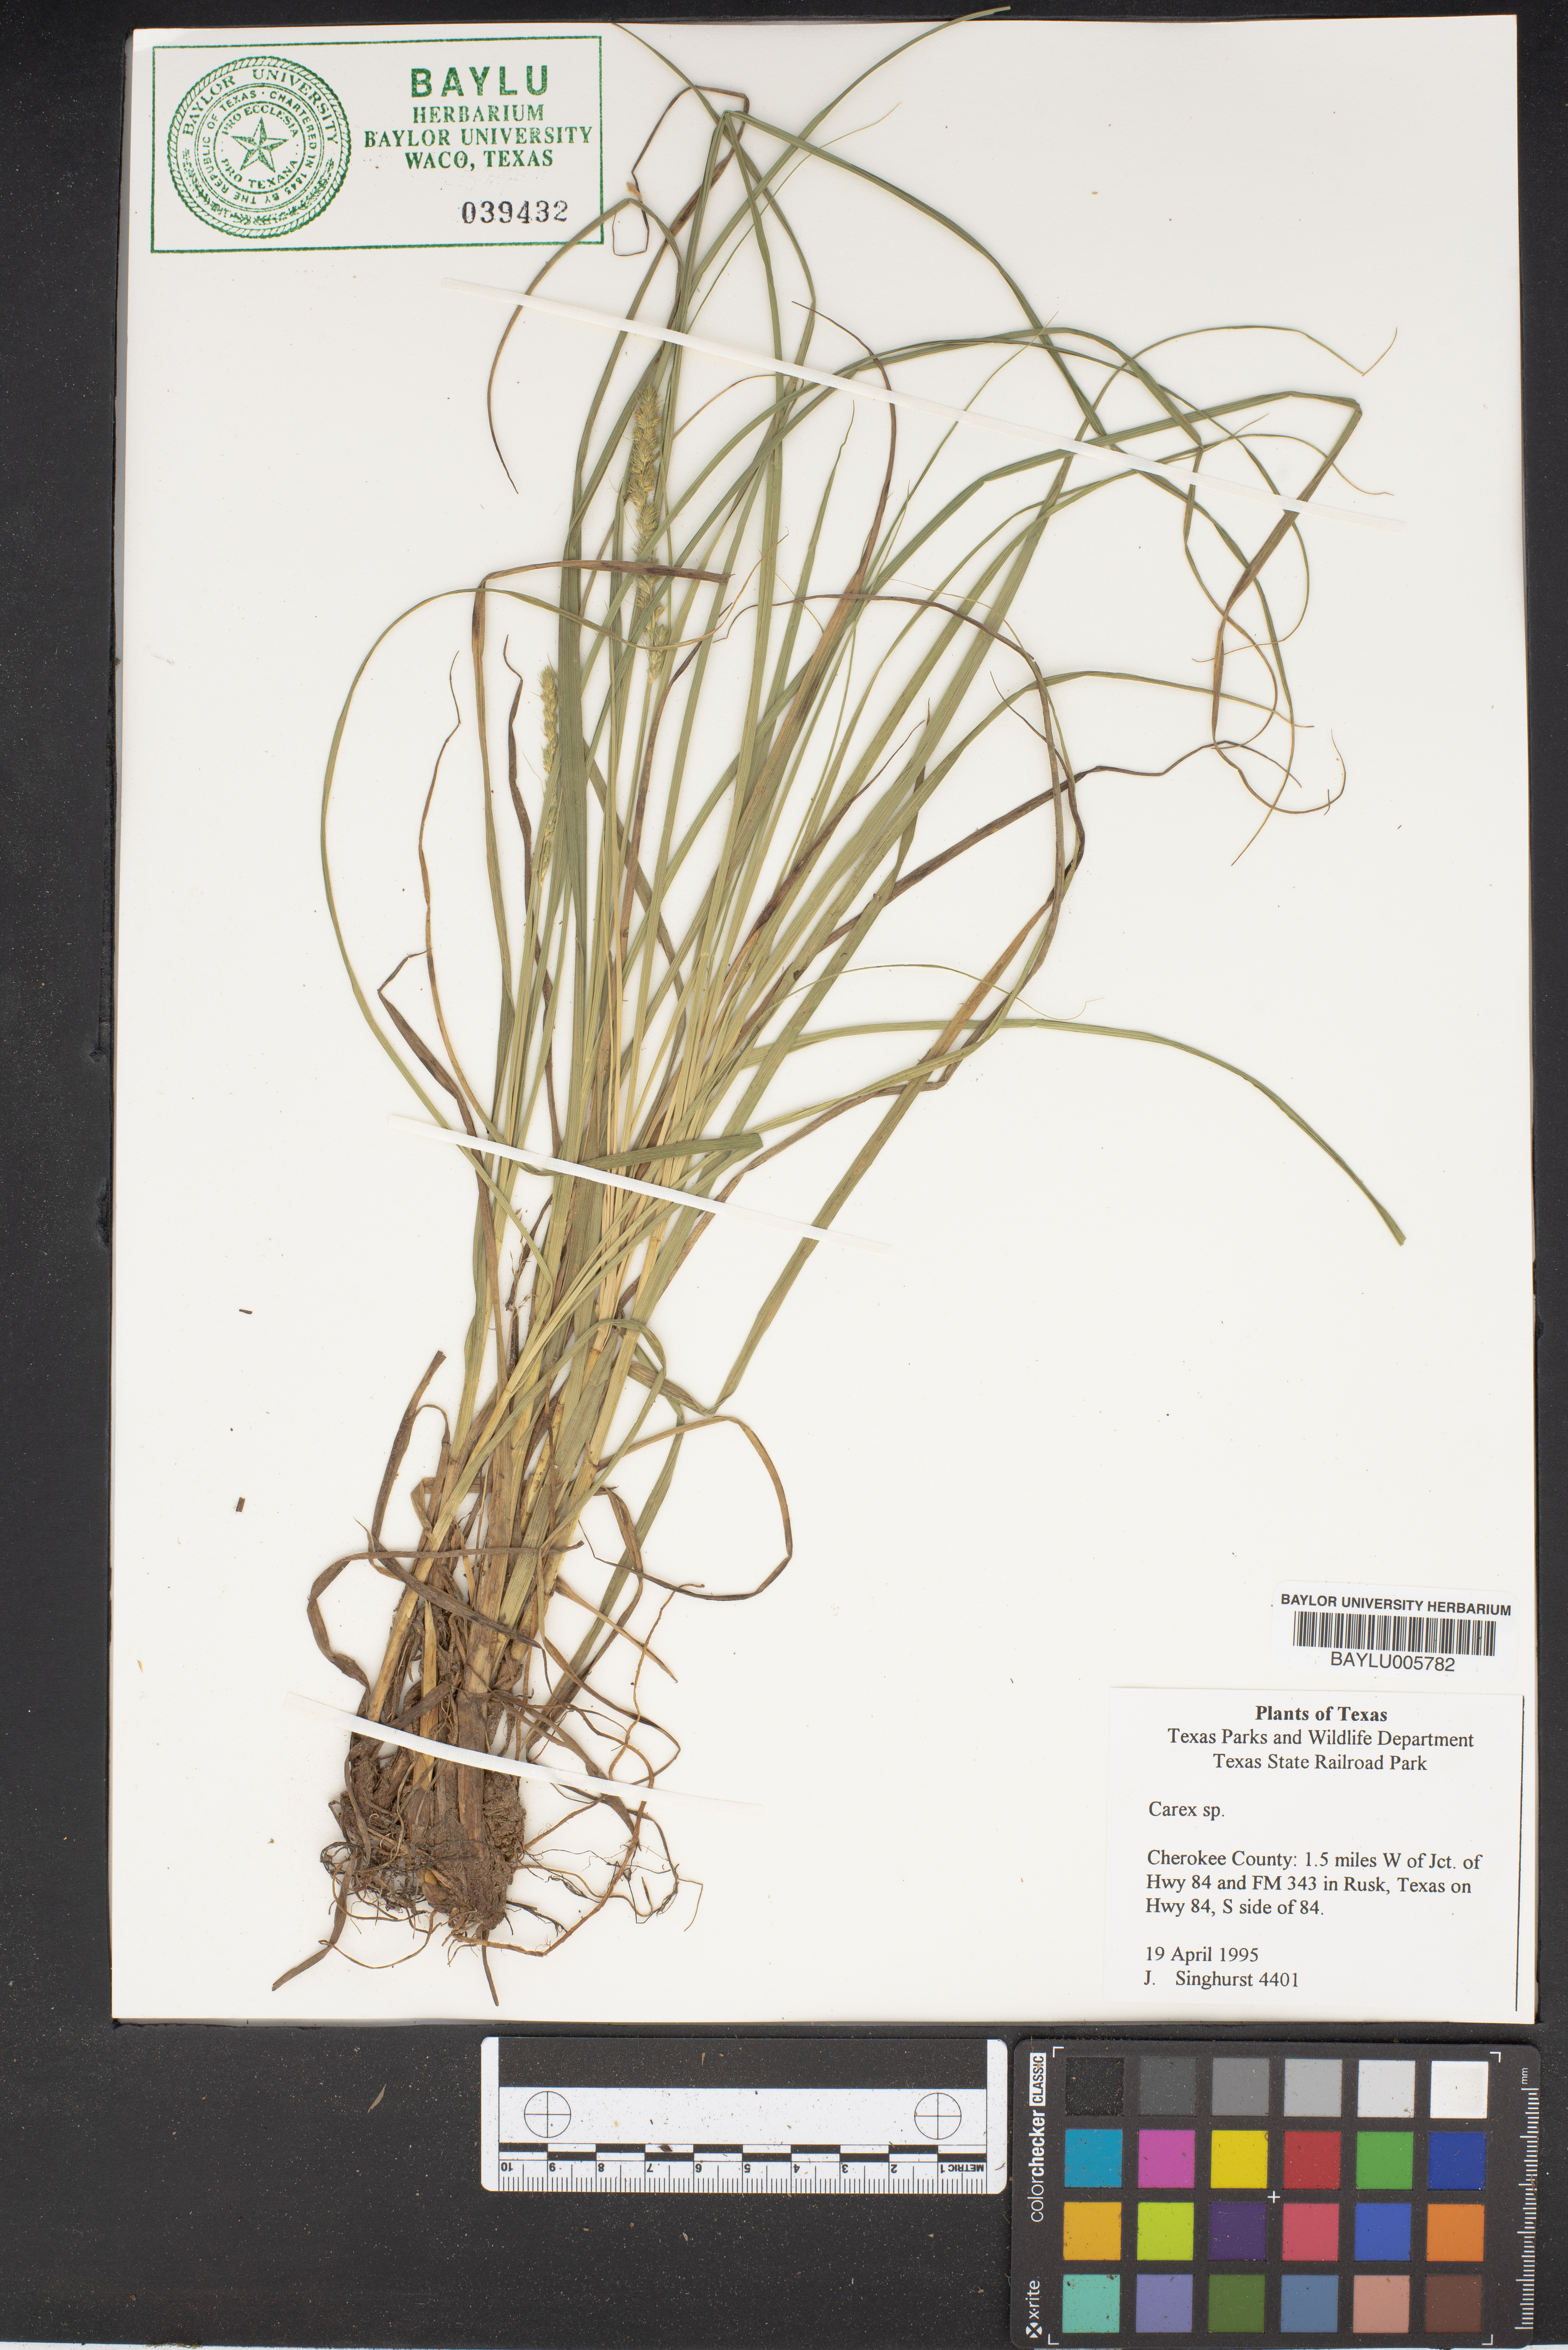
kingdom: Plantae
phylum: Tracheophyta
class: Liliopsida
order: Poales
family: Cyperaceae
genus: Carex
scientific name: Carex
